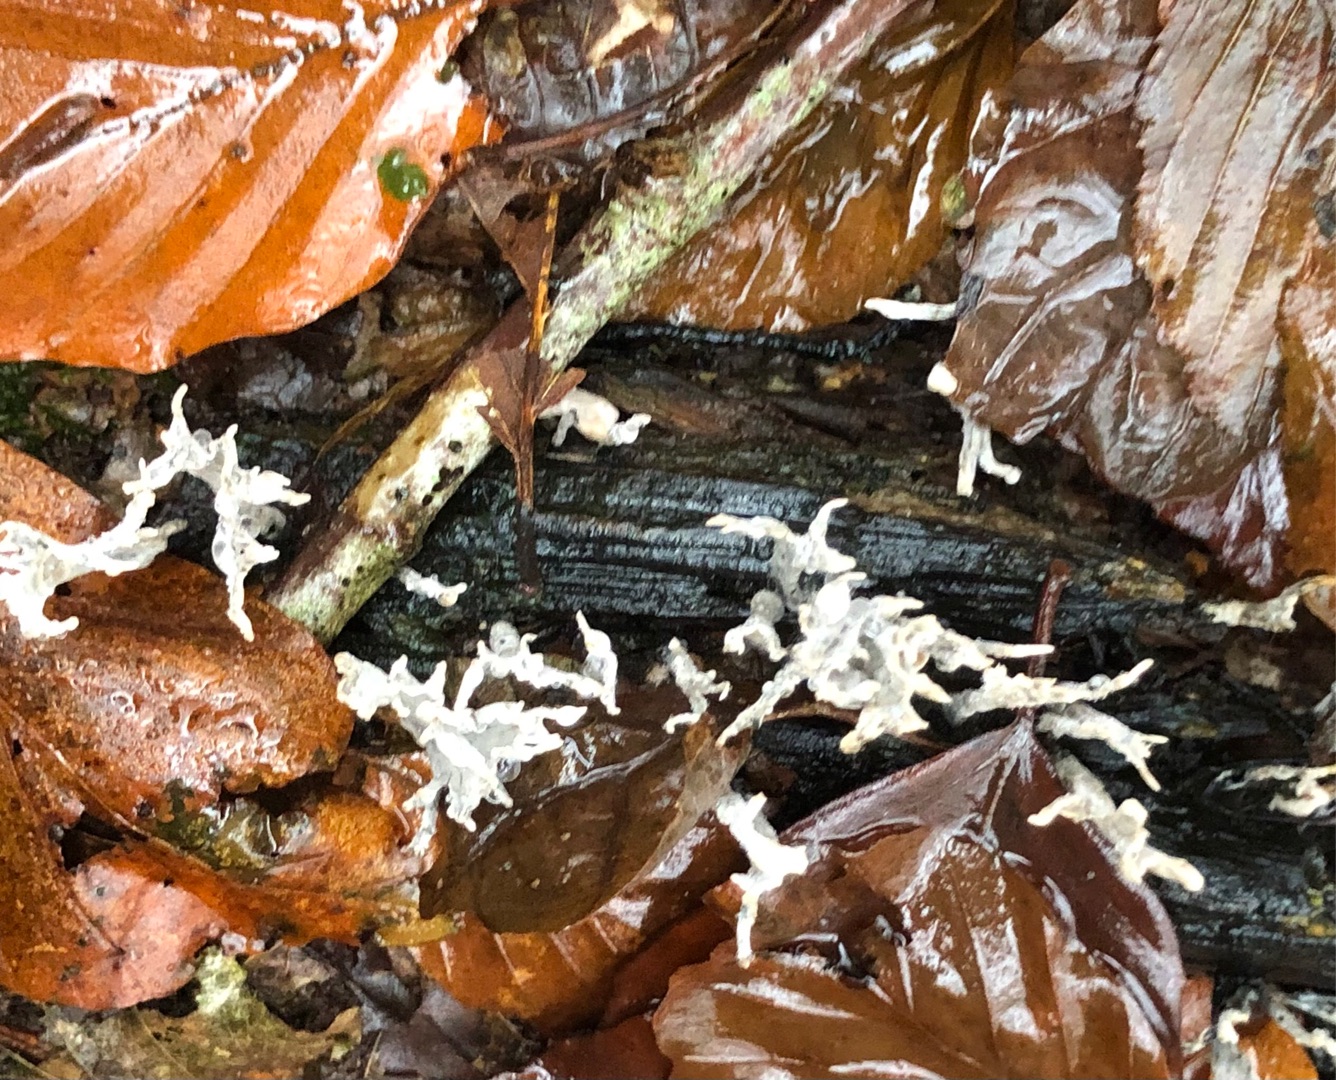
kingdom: Fungi
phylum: Ascomycota
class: Sordariomycetes
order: Xylariales
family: Xylariaceae
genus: Xylaria
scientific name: Xylaria hypoxylon
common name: Grenet stødsvamp
